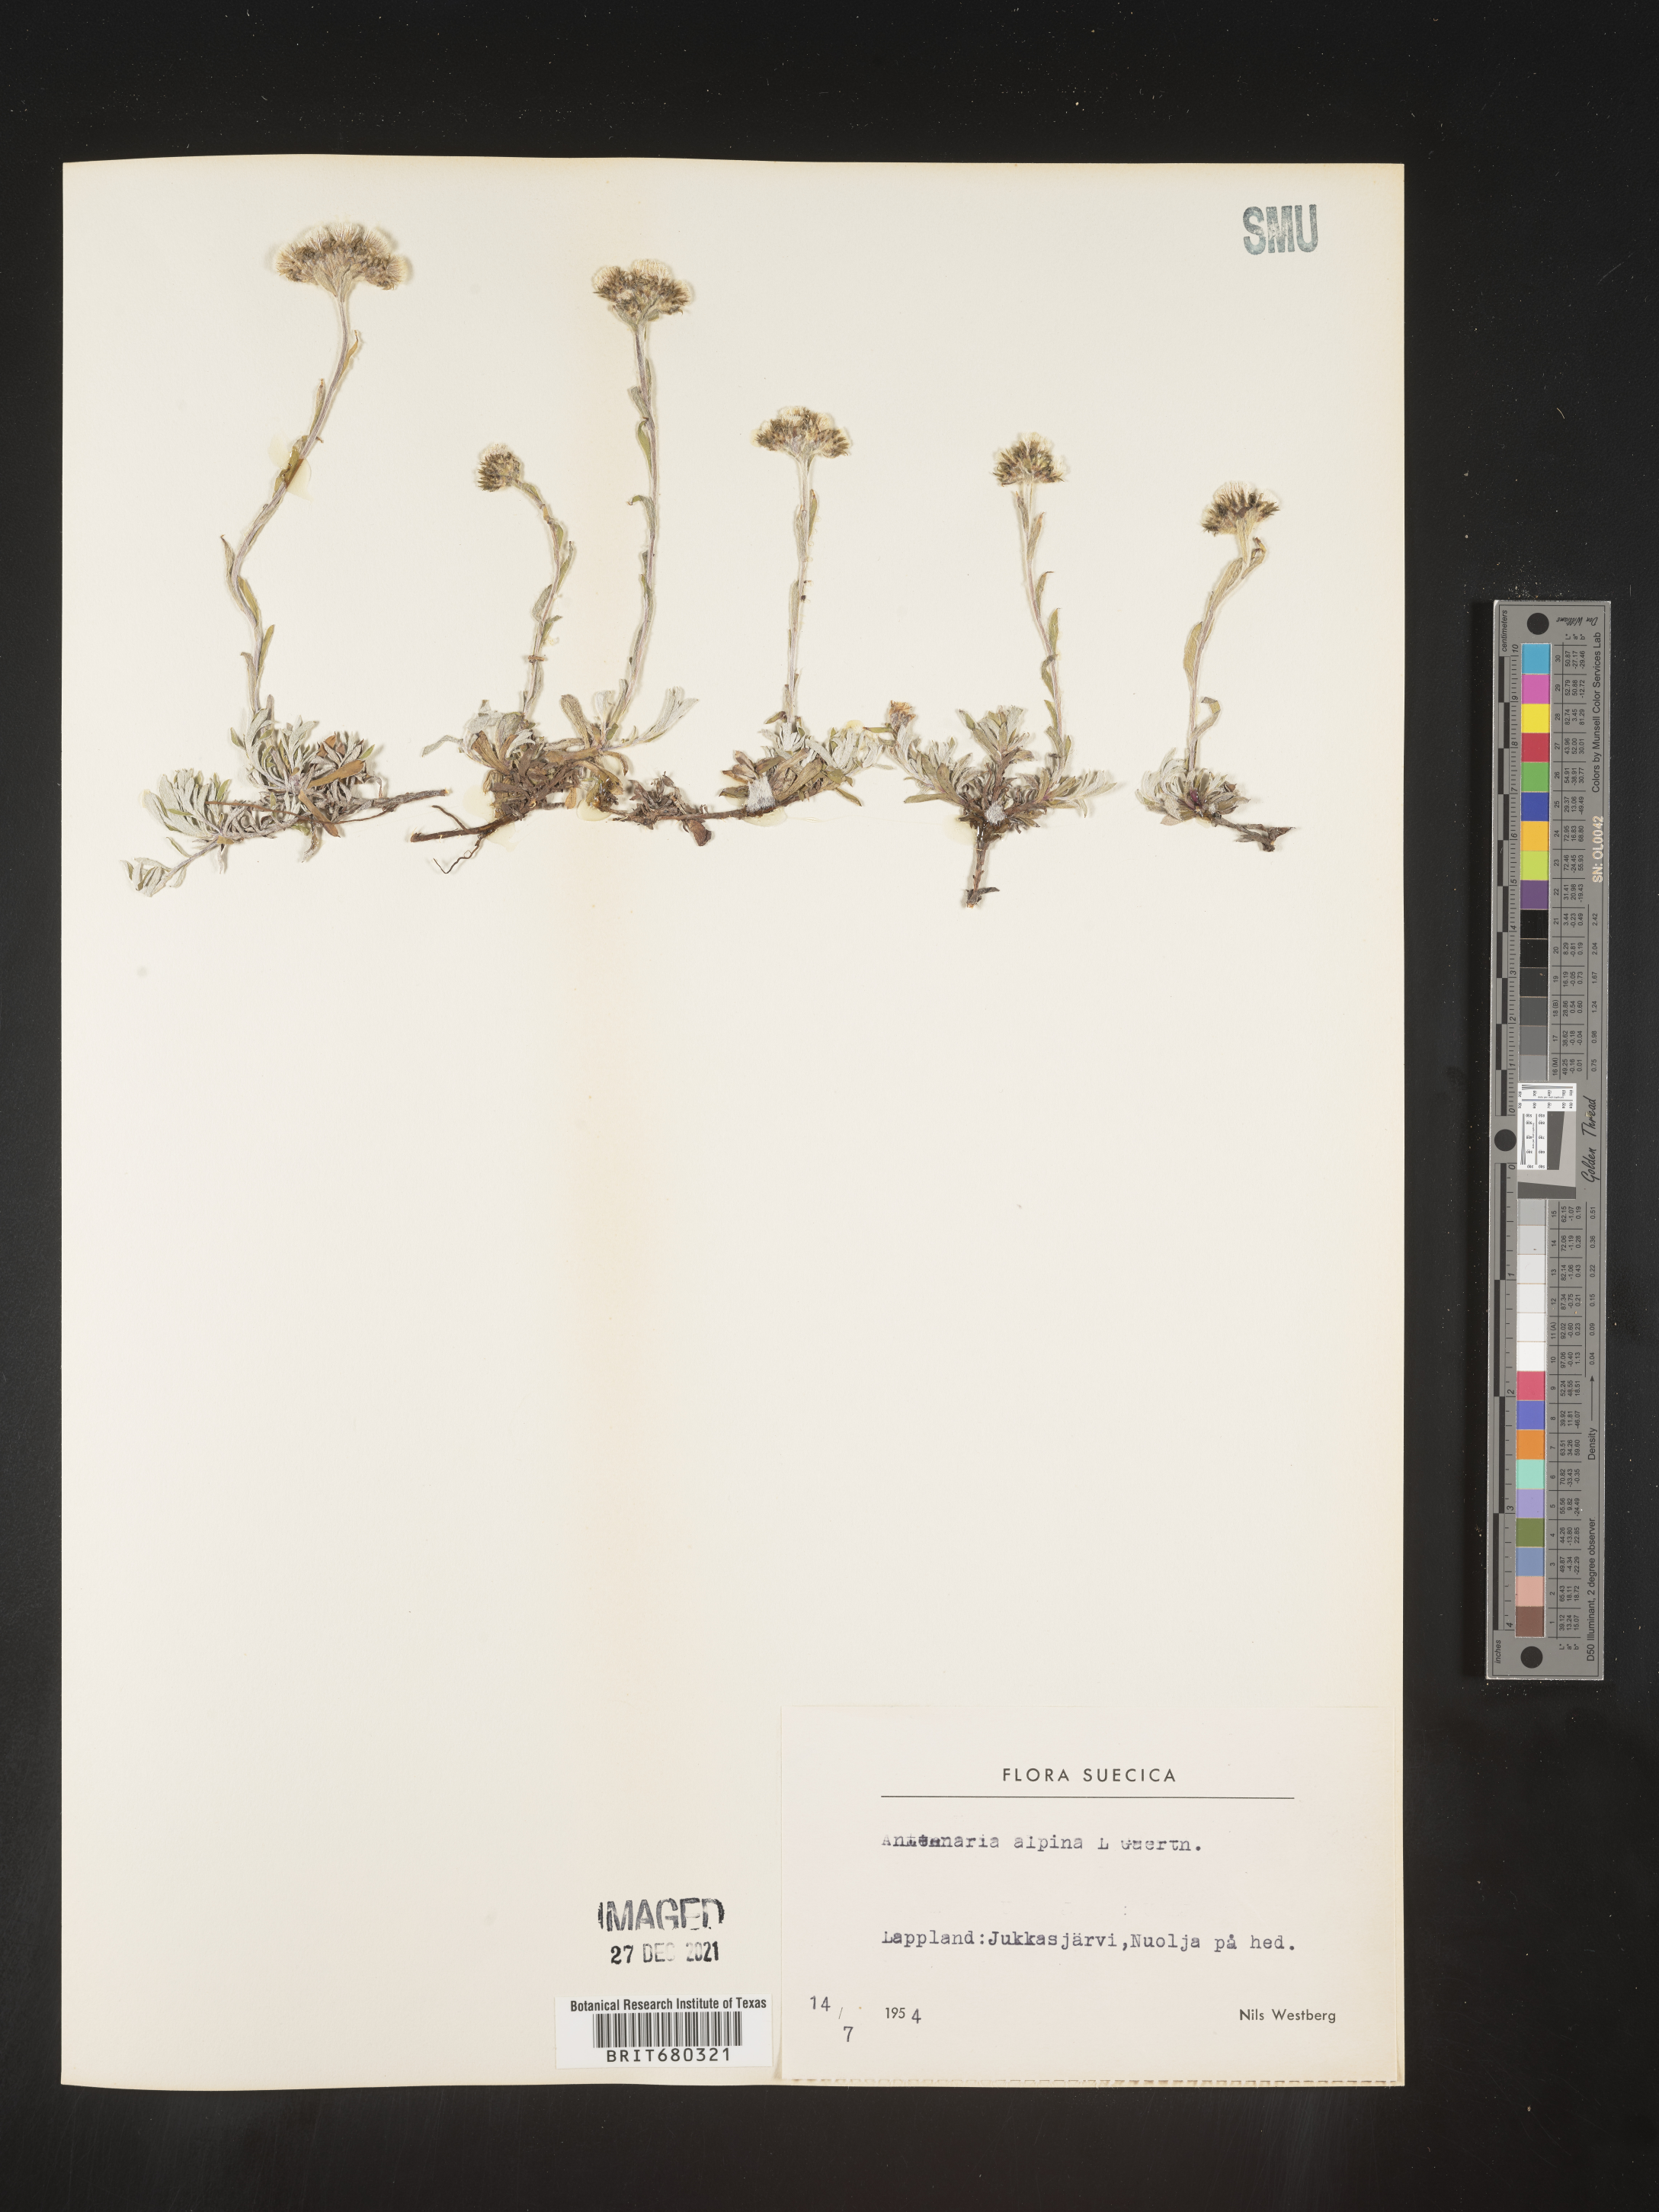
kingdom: Plantae
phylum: Tracheophyta
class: Magnoliopsida
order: Asterales
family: Asteraceae
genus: Antennaria
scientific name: Antennaria
